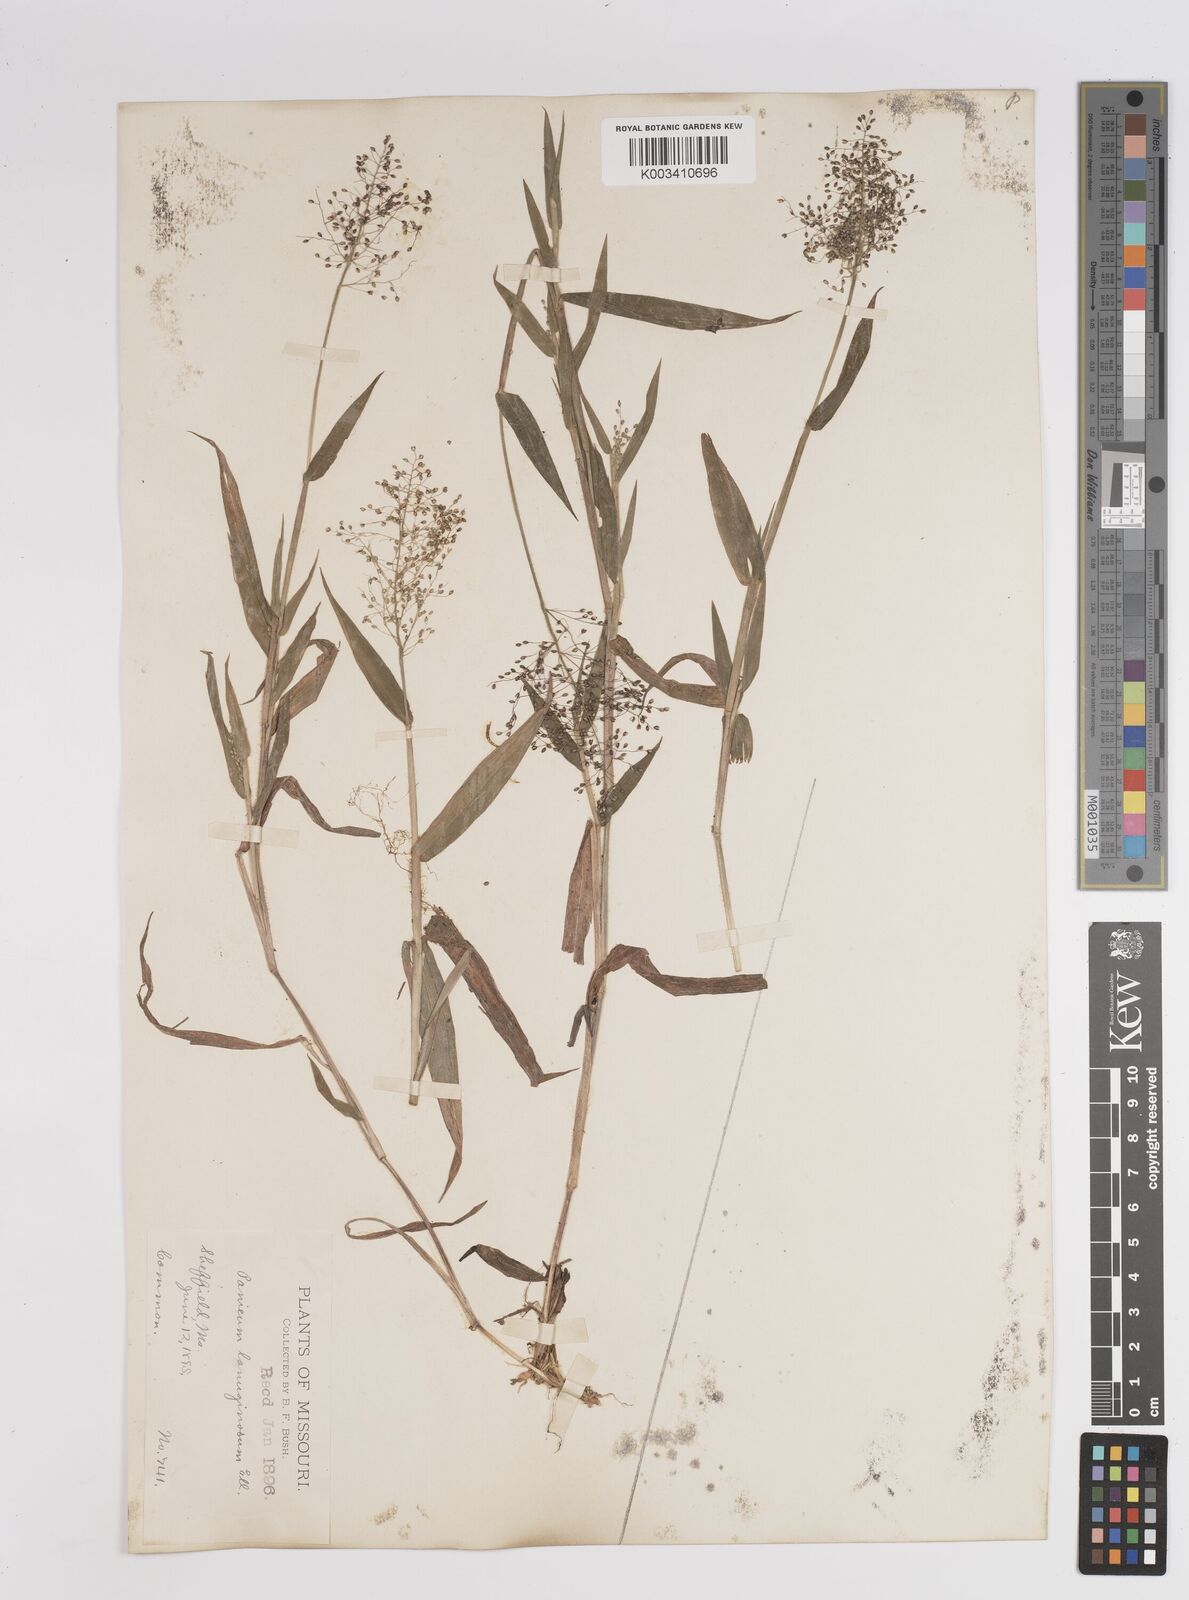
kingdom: Plantae
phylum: Tracheophyta
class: Liliopsida
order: Poales
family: Poaceae
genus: Dichanthelium
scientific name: Dichanthelium lanuginosum
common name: Woolly panicgrass
